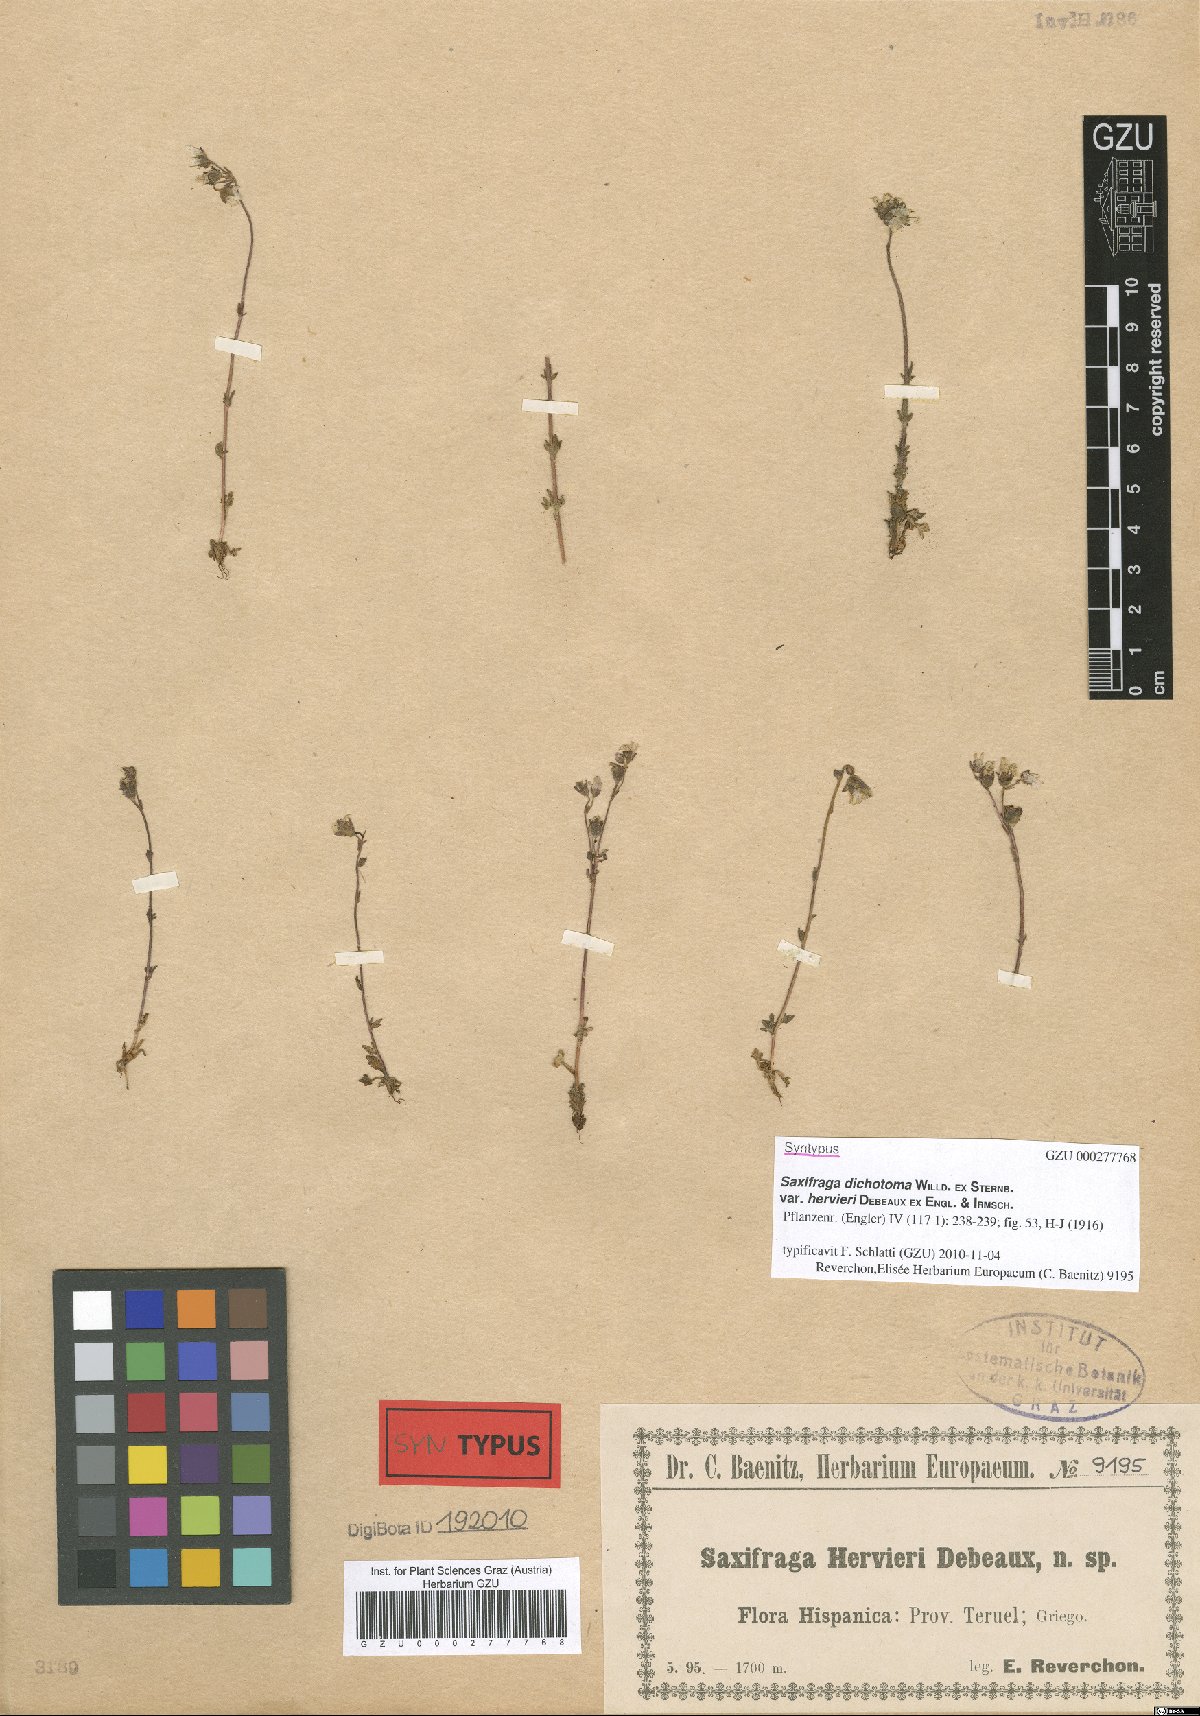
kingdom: Plantae
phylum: Tracheophyta
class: Magnoliopsida
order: Saxifragales
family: Saxifragaceae
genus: Saxifraga
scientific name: Saxifraga dichotoma
